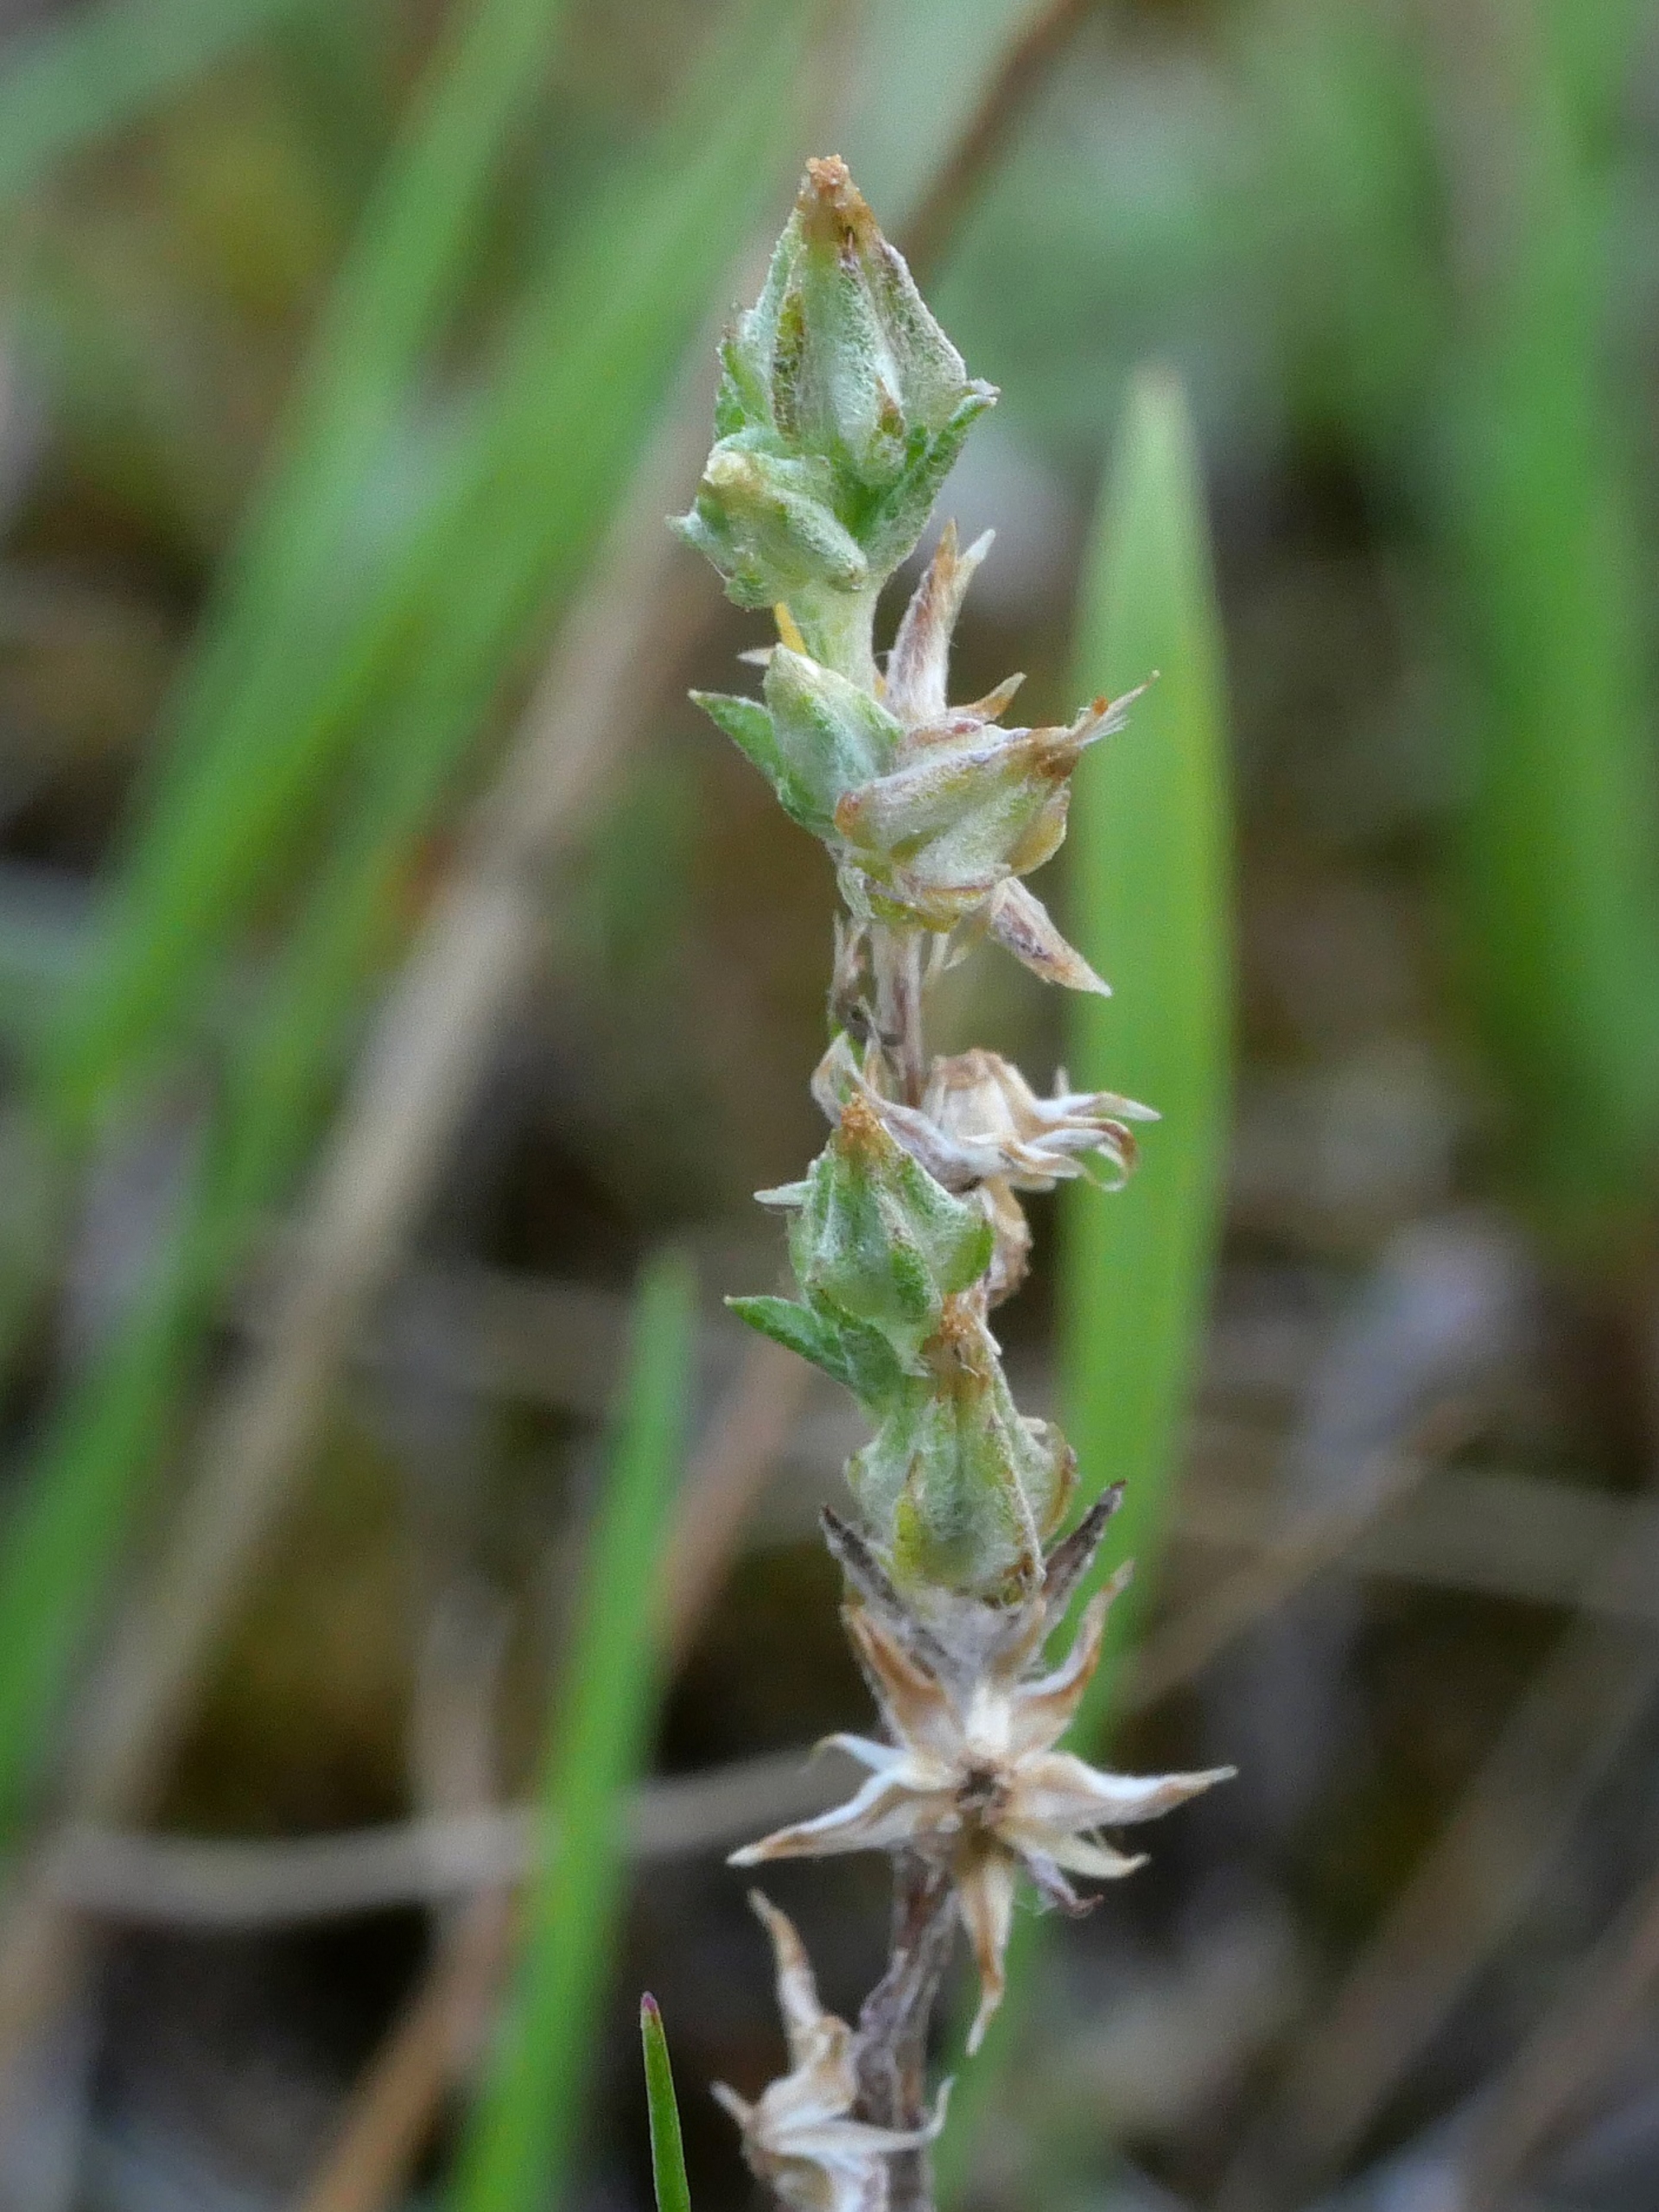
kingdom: Plantae
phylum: Tracheophyta
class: Magnoliopsida
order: Asterales
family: Asteraceae
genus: Logfia
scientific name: Logfia minima
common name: Liden museurt
